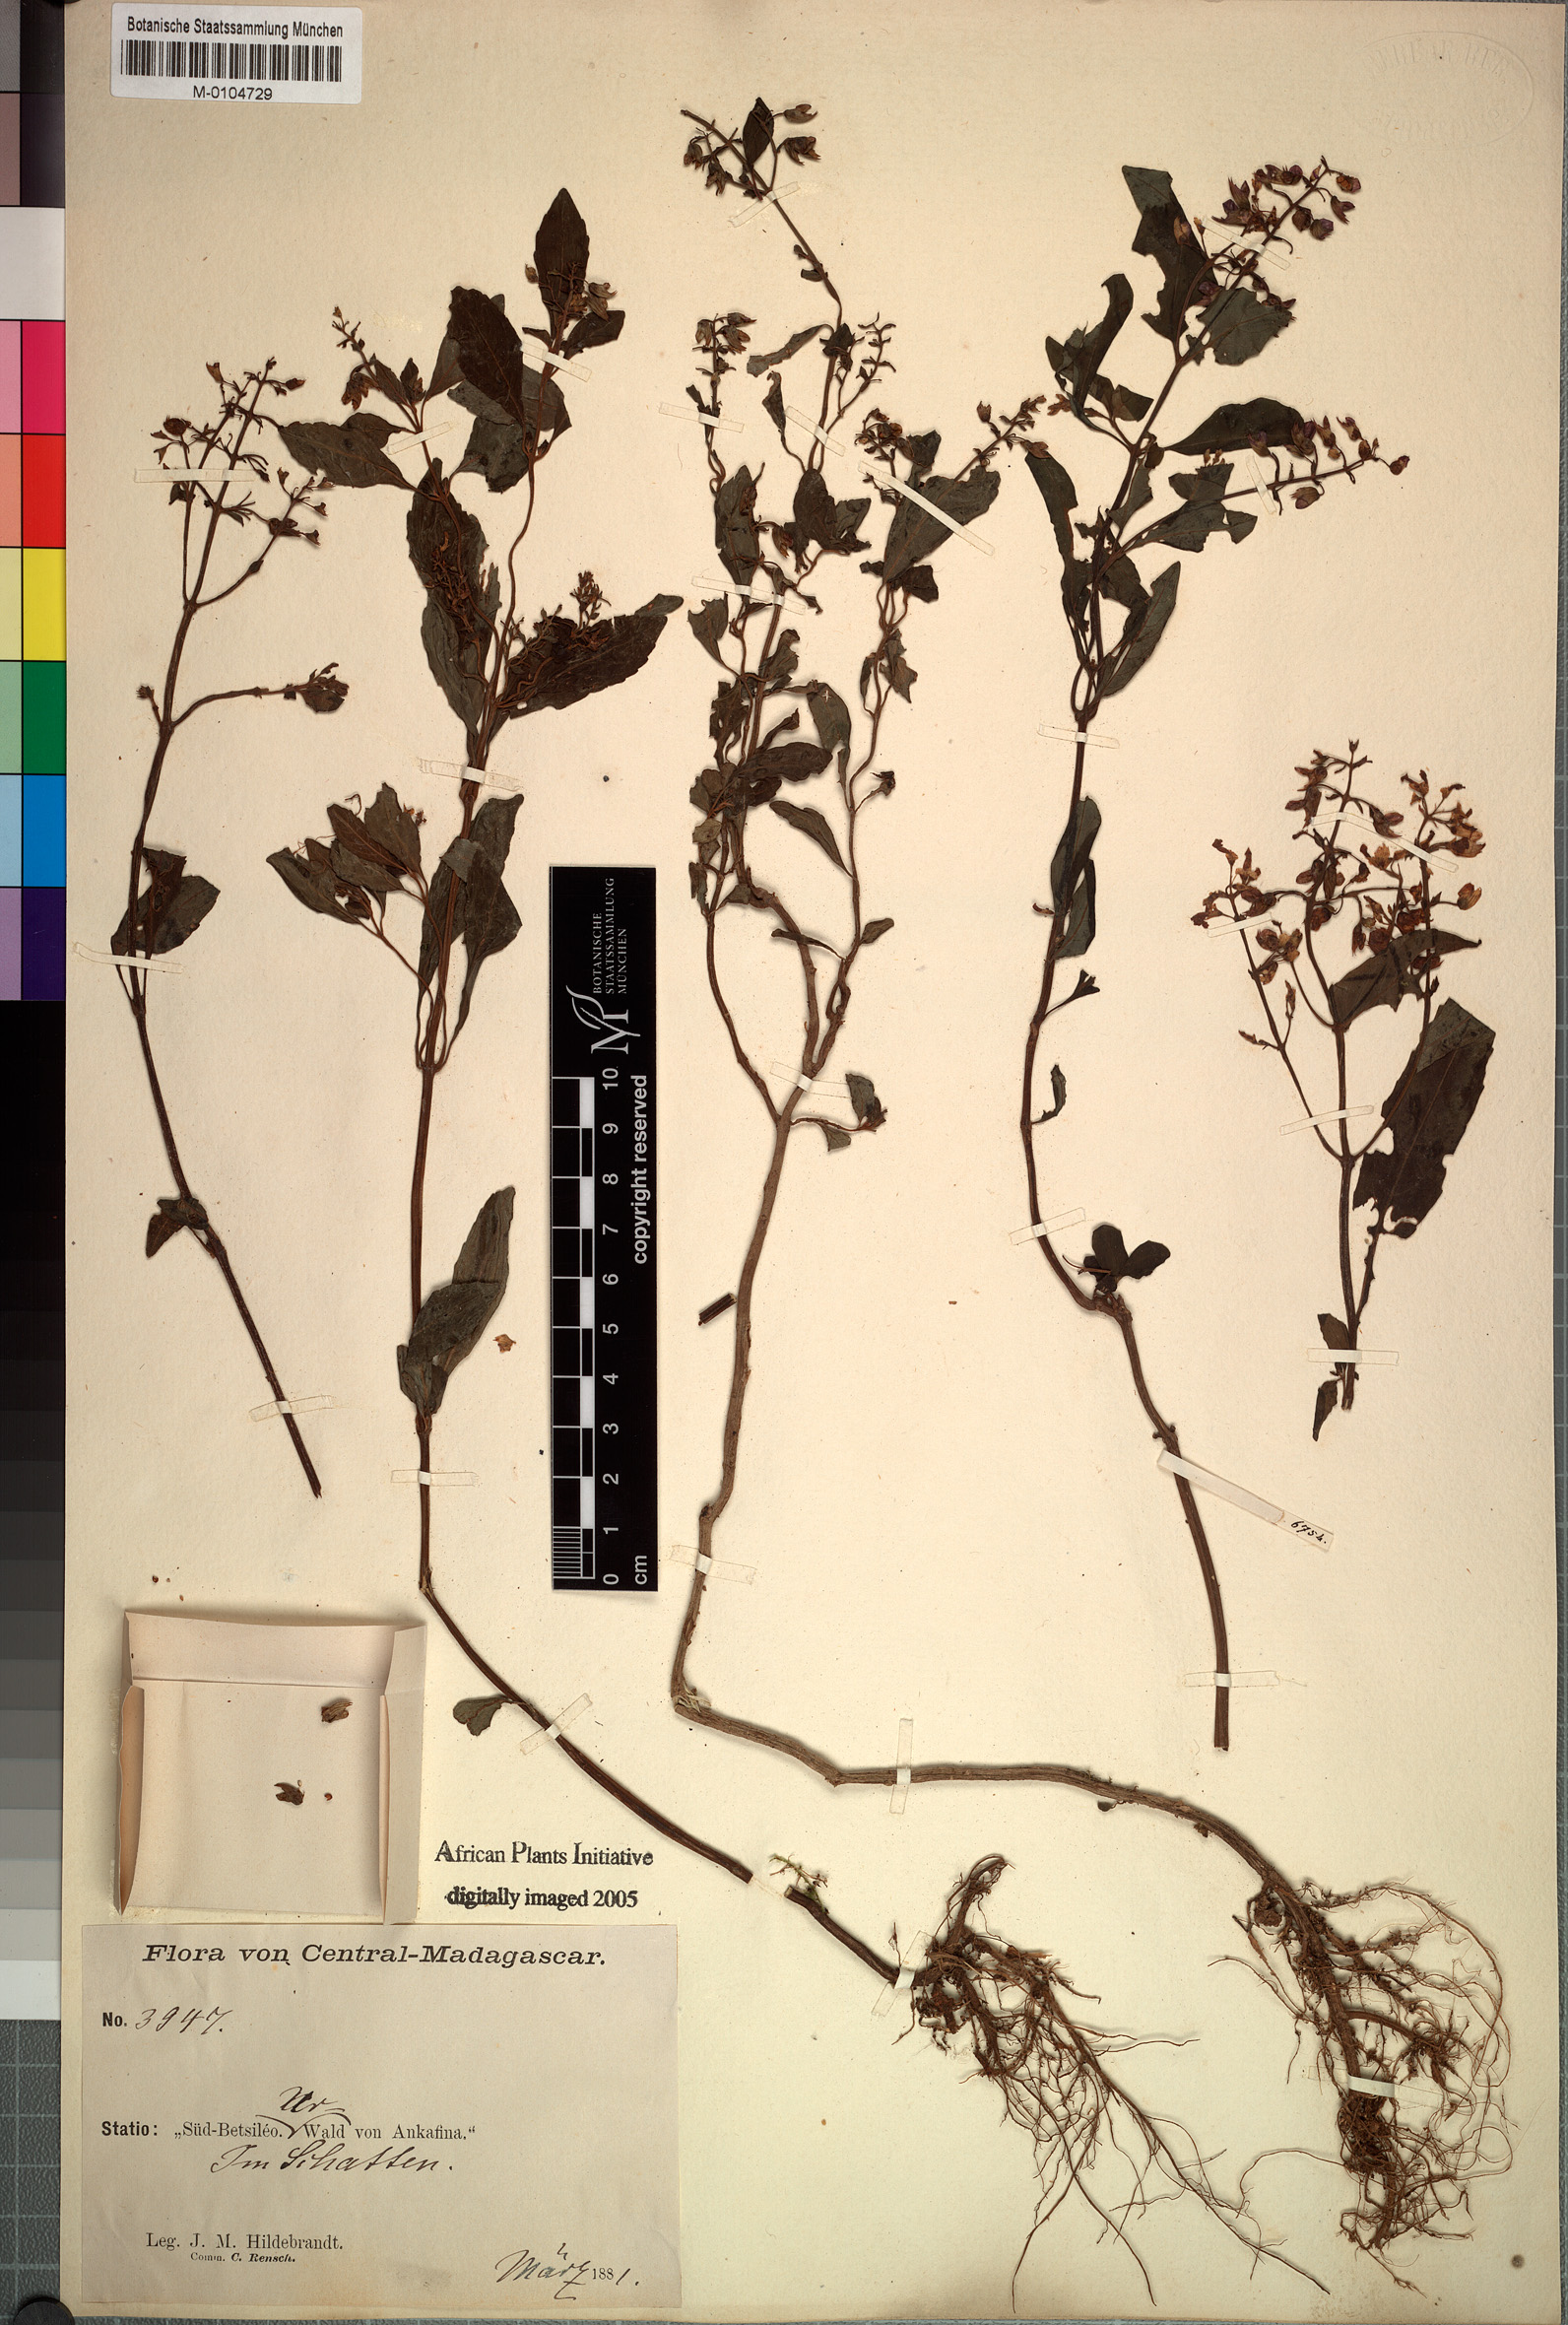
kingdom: Plantae
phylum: Tracheophyta
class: Magnoliopsida
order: Lamiales
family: Lamiaceae
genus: Plectranthus
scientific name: Plectranthus emirnensis
